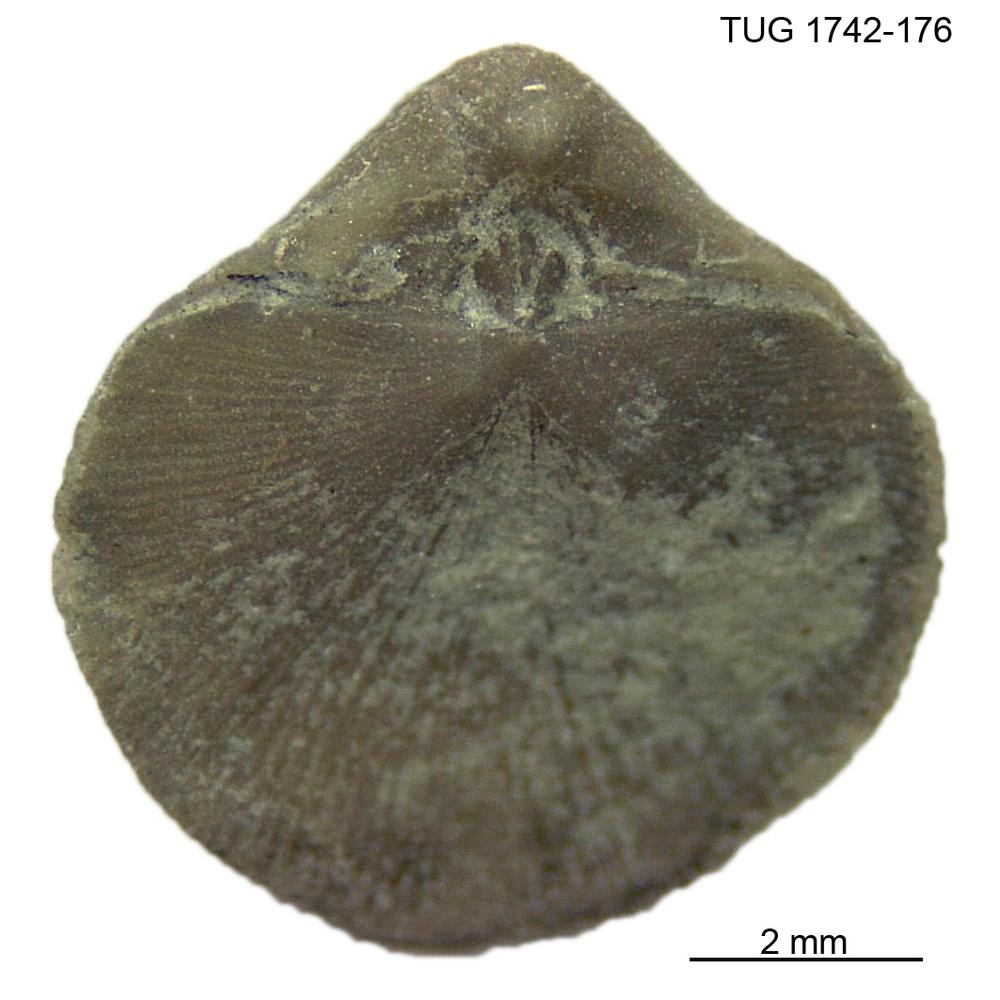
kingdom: Animalia
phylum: Brachiopoda
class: Rhynchonellata
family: Dalmanellidae
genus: Visbyella
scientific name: Visbyella pygmae
